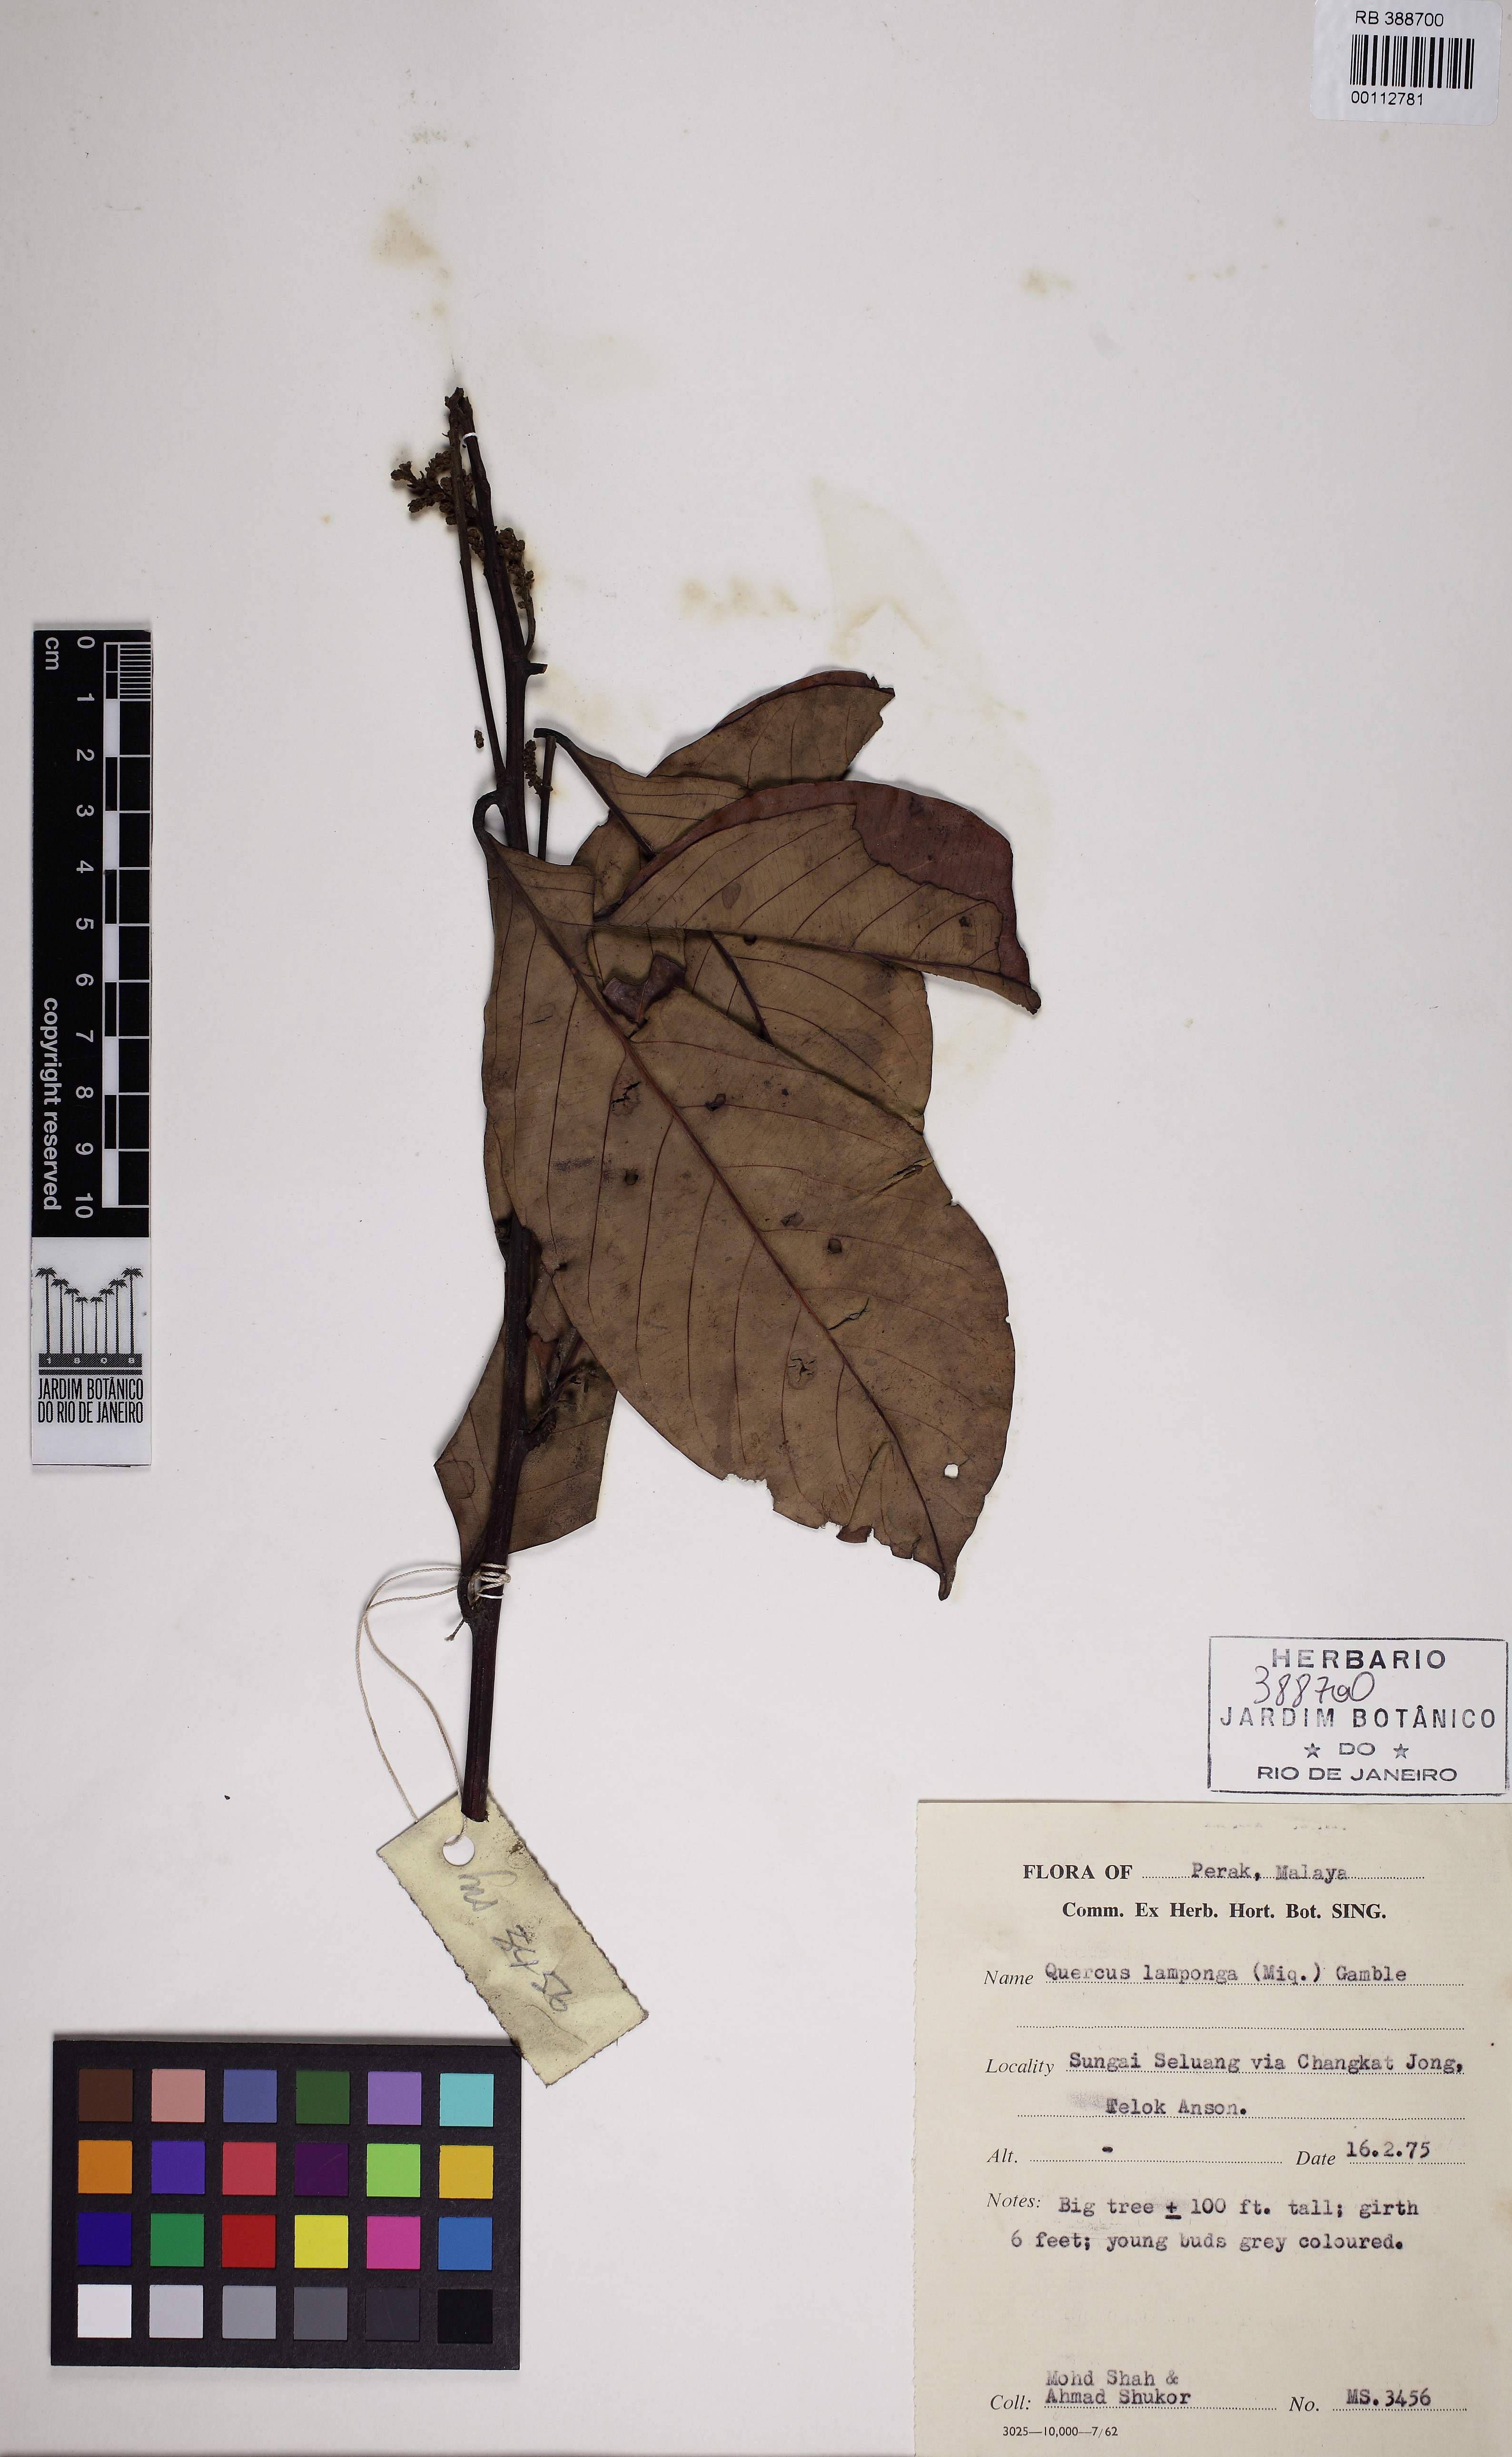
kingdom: Plantae
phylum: Tracheophyta
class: Magnoliopsida
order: Fagales
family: Fagaceae
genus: Lithocarpus
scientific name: Lithocarpus sundaicus
